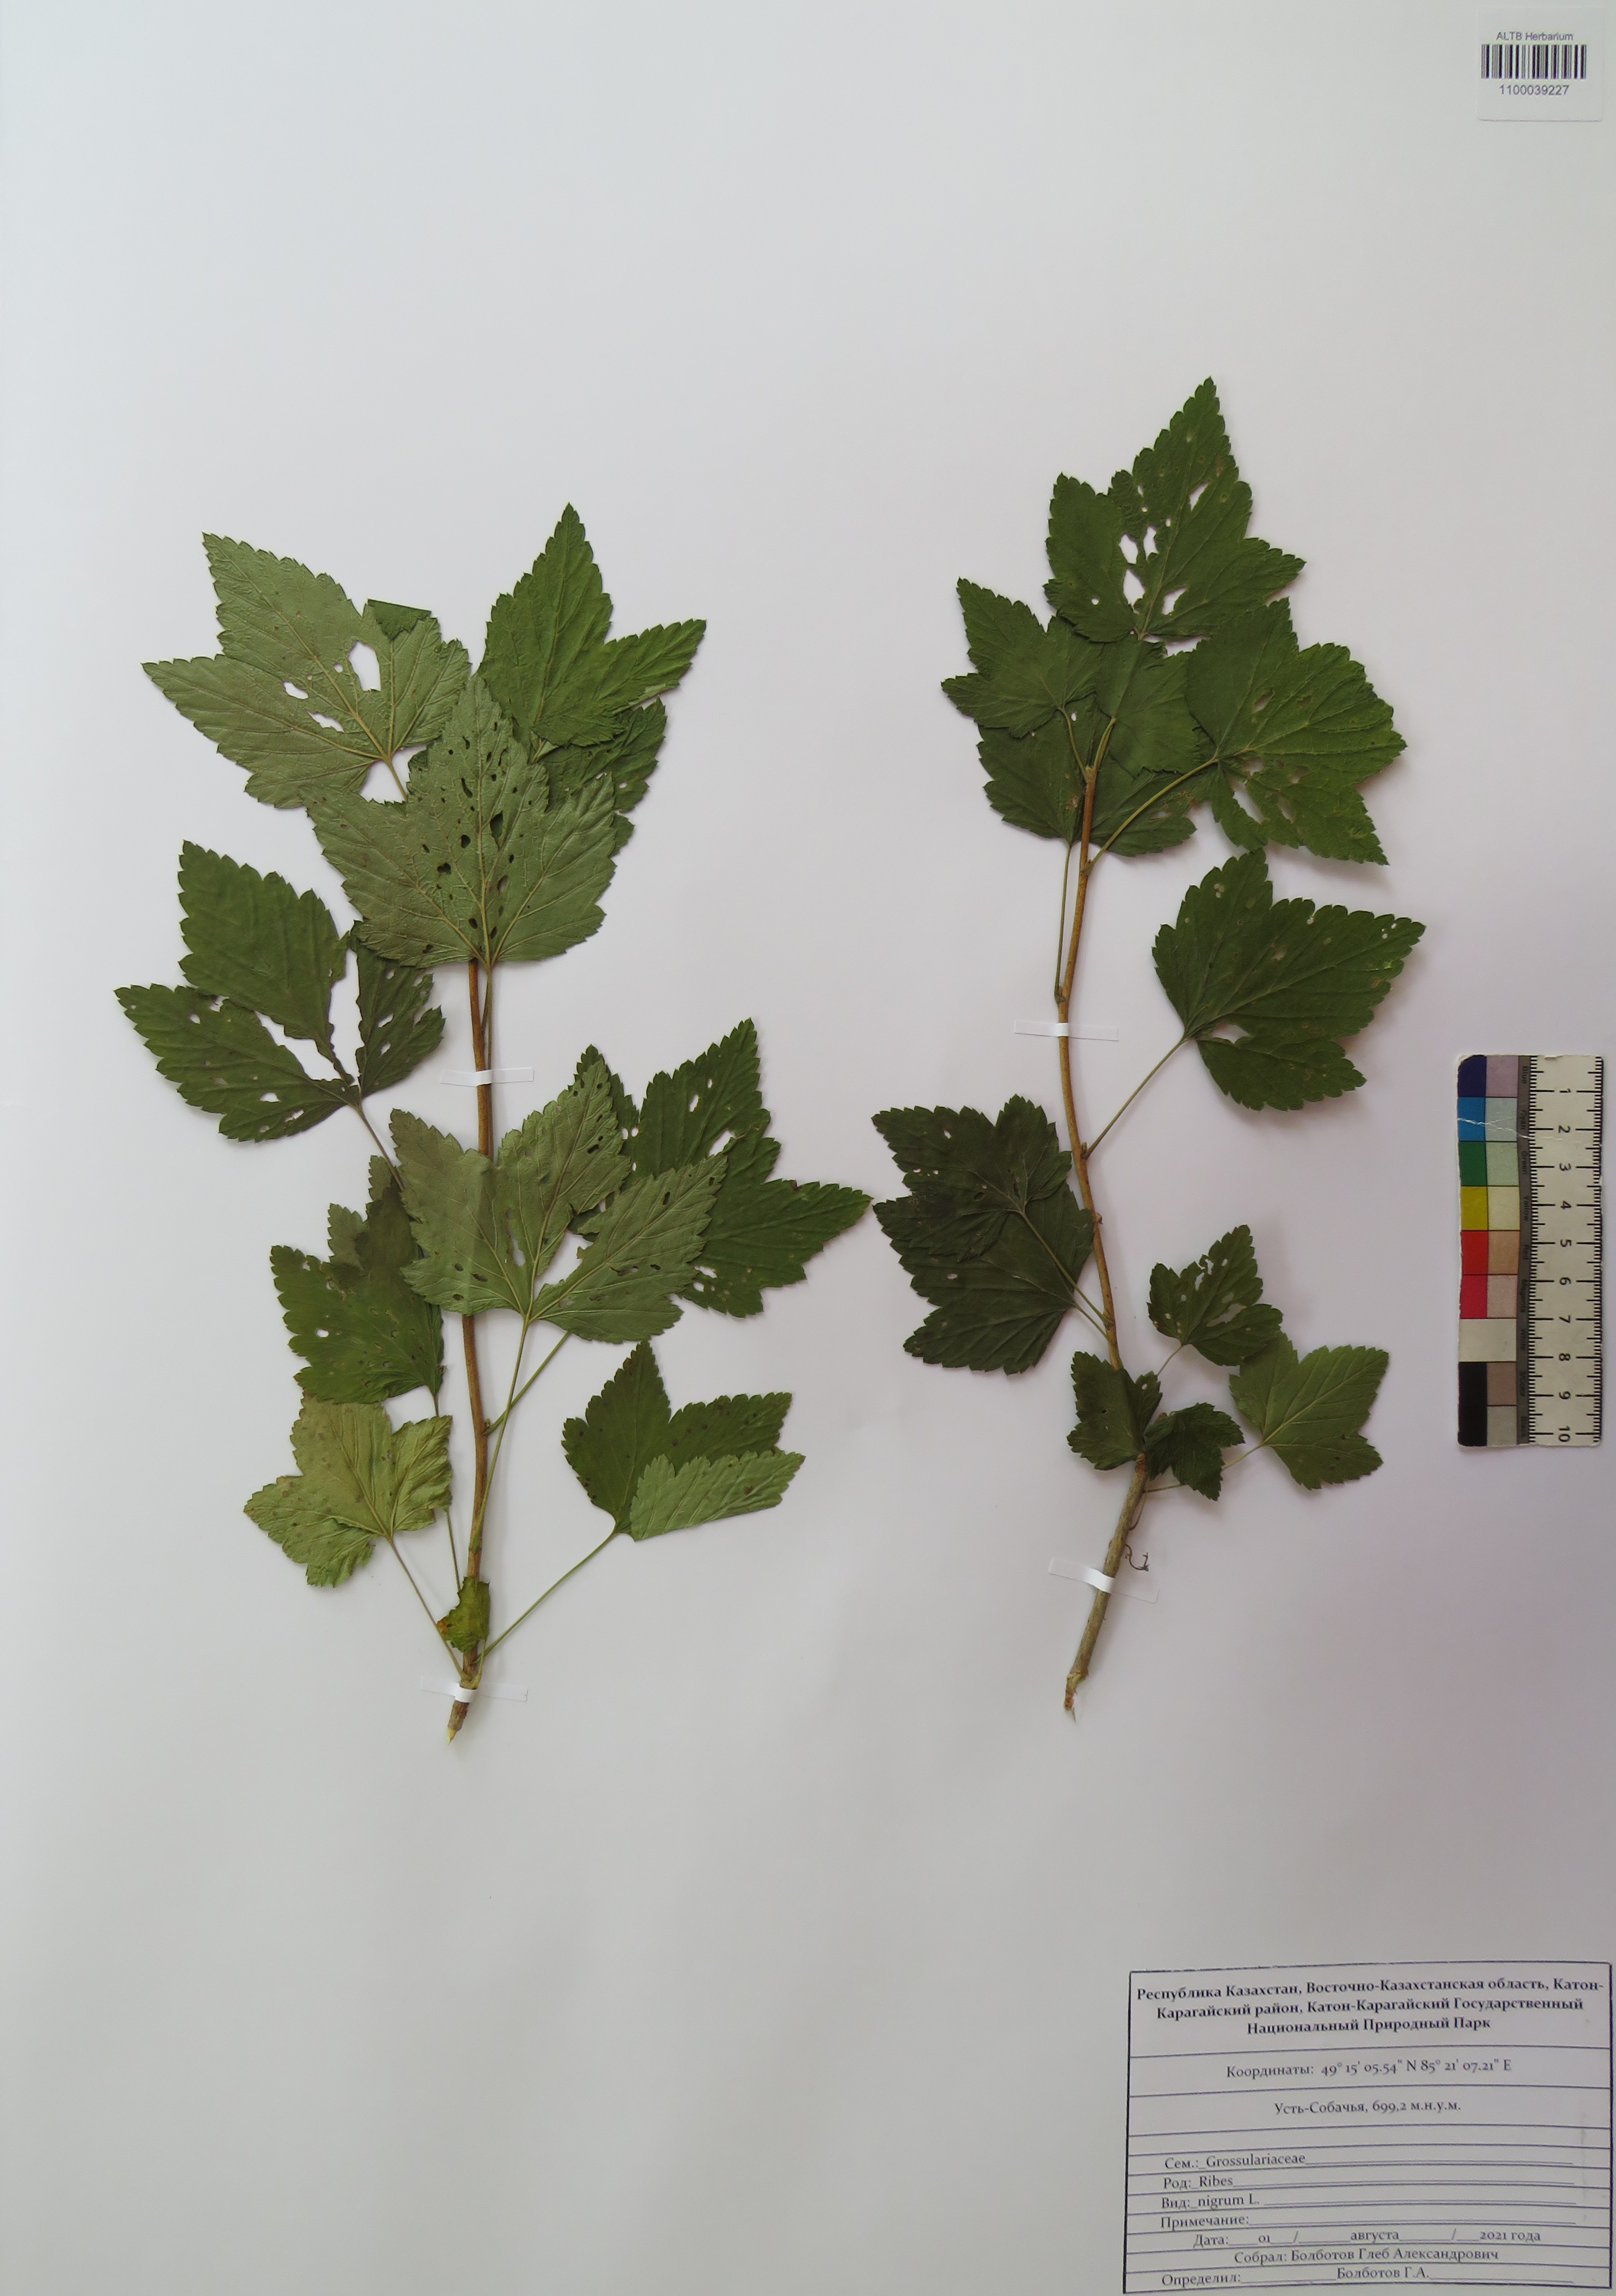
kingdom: Plantae
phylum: Tracheophyta
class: Magnoliopsida
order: Saxifragales
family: Grossulariaceae
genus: Ribes
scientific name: Ribes nigrum
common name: Black currant
